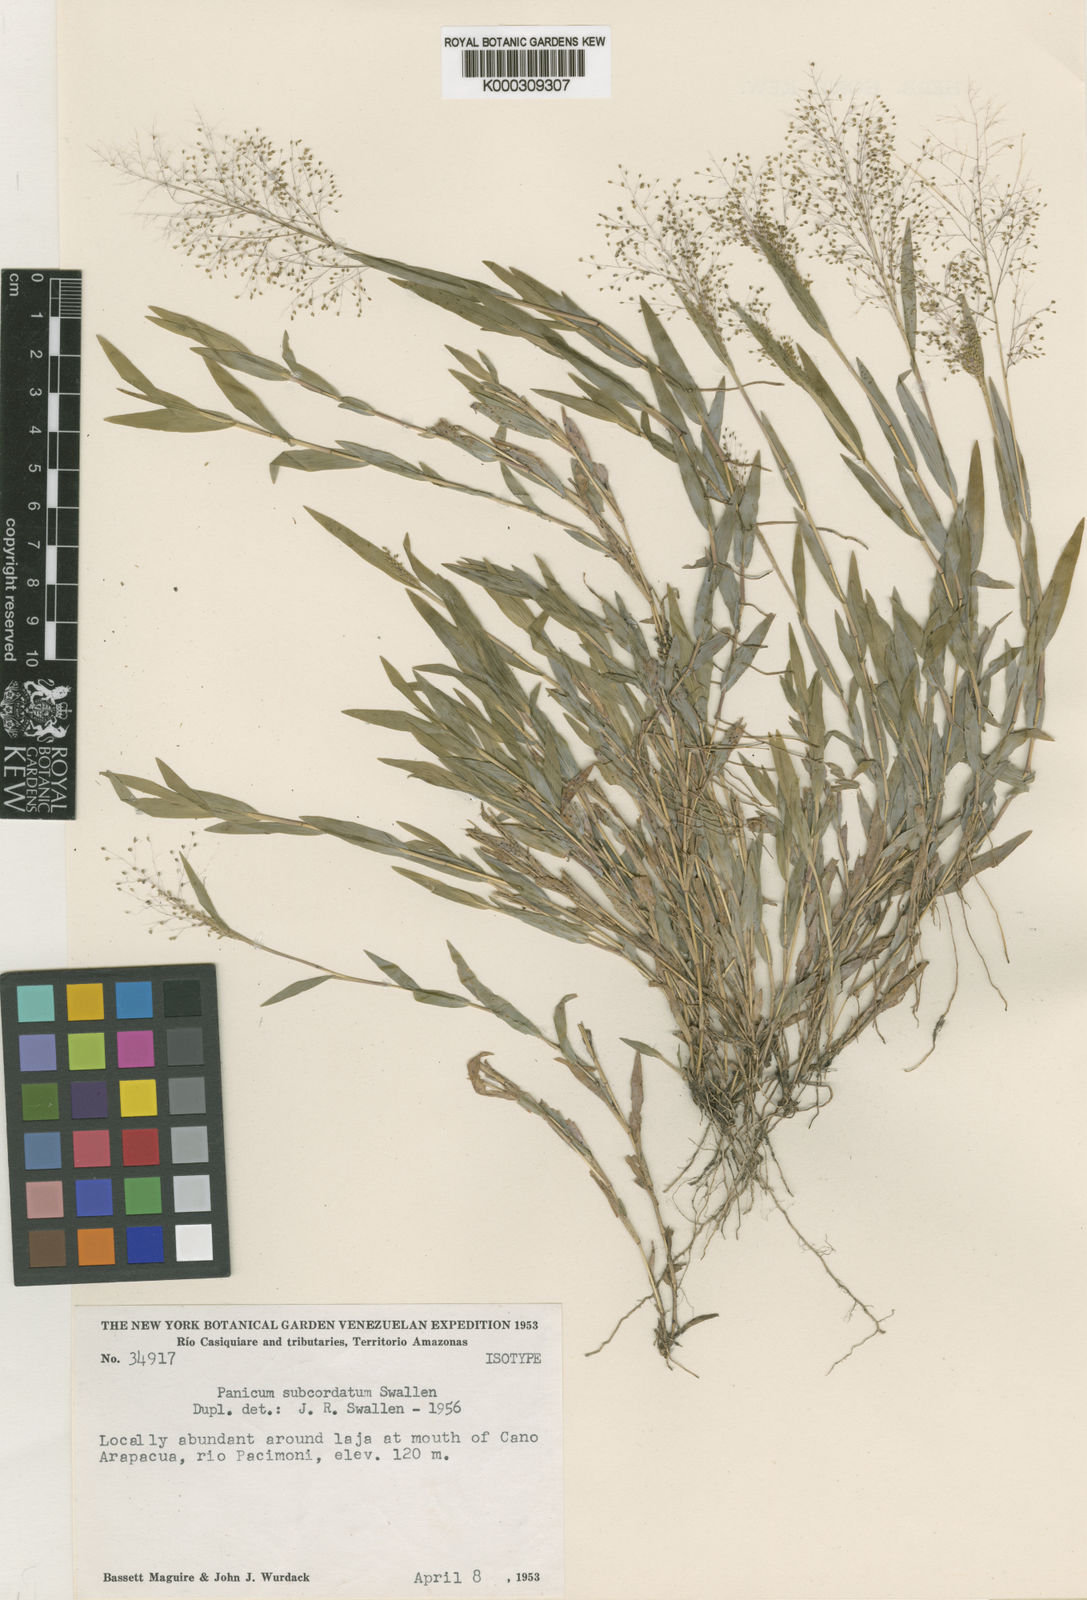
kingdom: Plantae
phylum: Tracheophyta
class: Liliopsida
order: Poales
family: Poaceae
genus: Panicum
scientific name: Panicum
